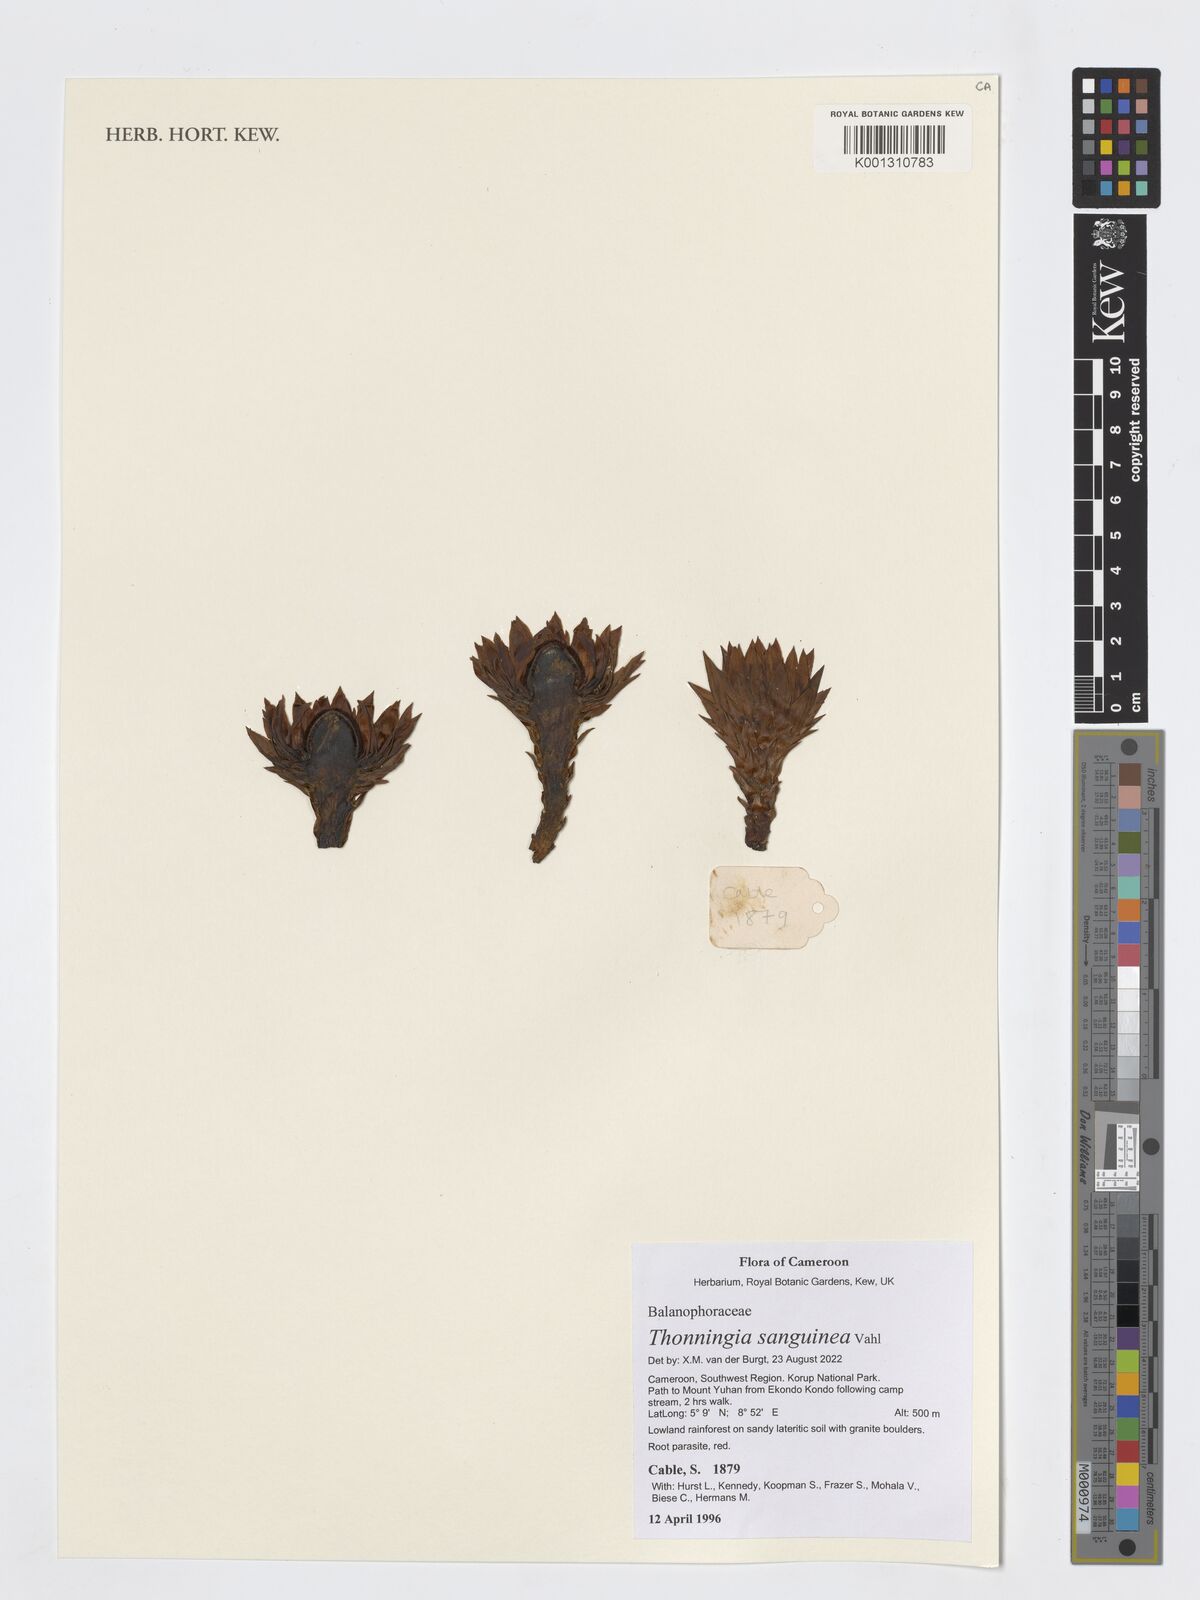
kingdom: Plantae
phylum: Tracheophyta
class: Magnoliopsida
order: Santalales
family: Balanophoraceae
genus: Thonningia
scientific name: Thonningia sanguinea
